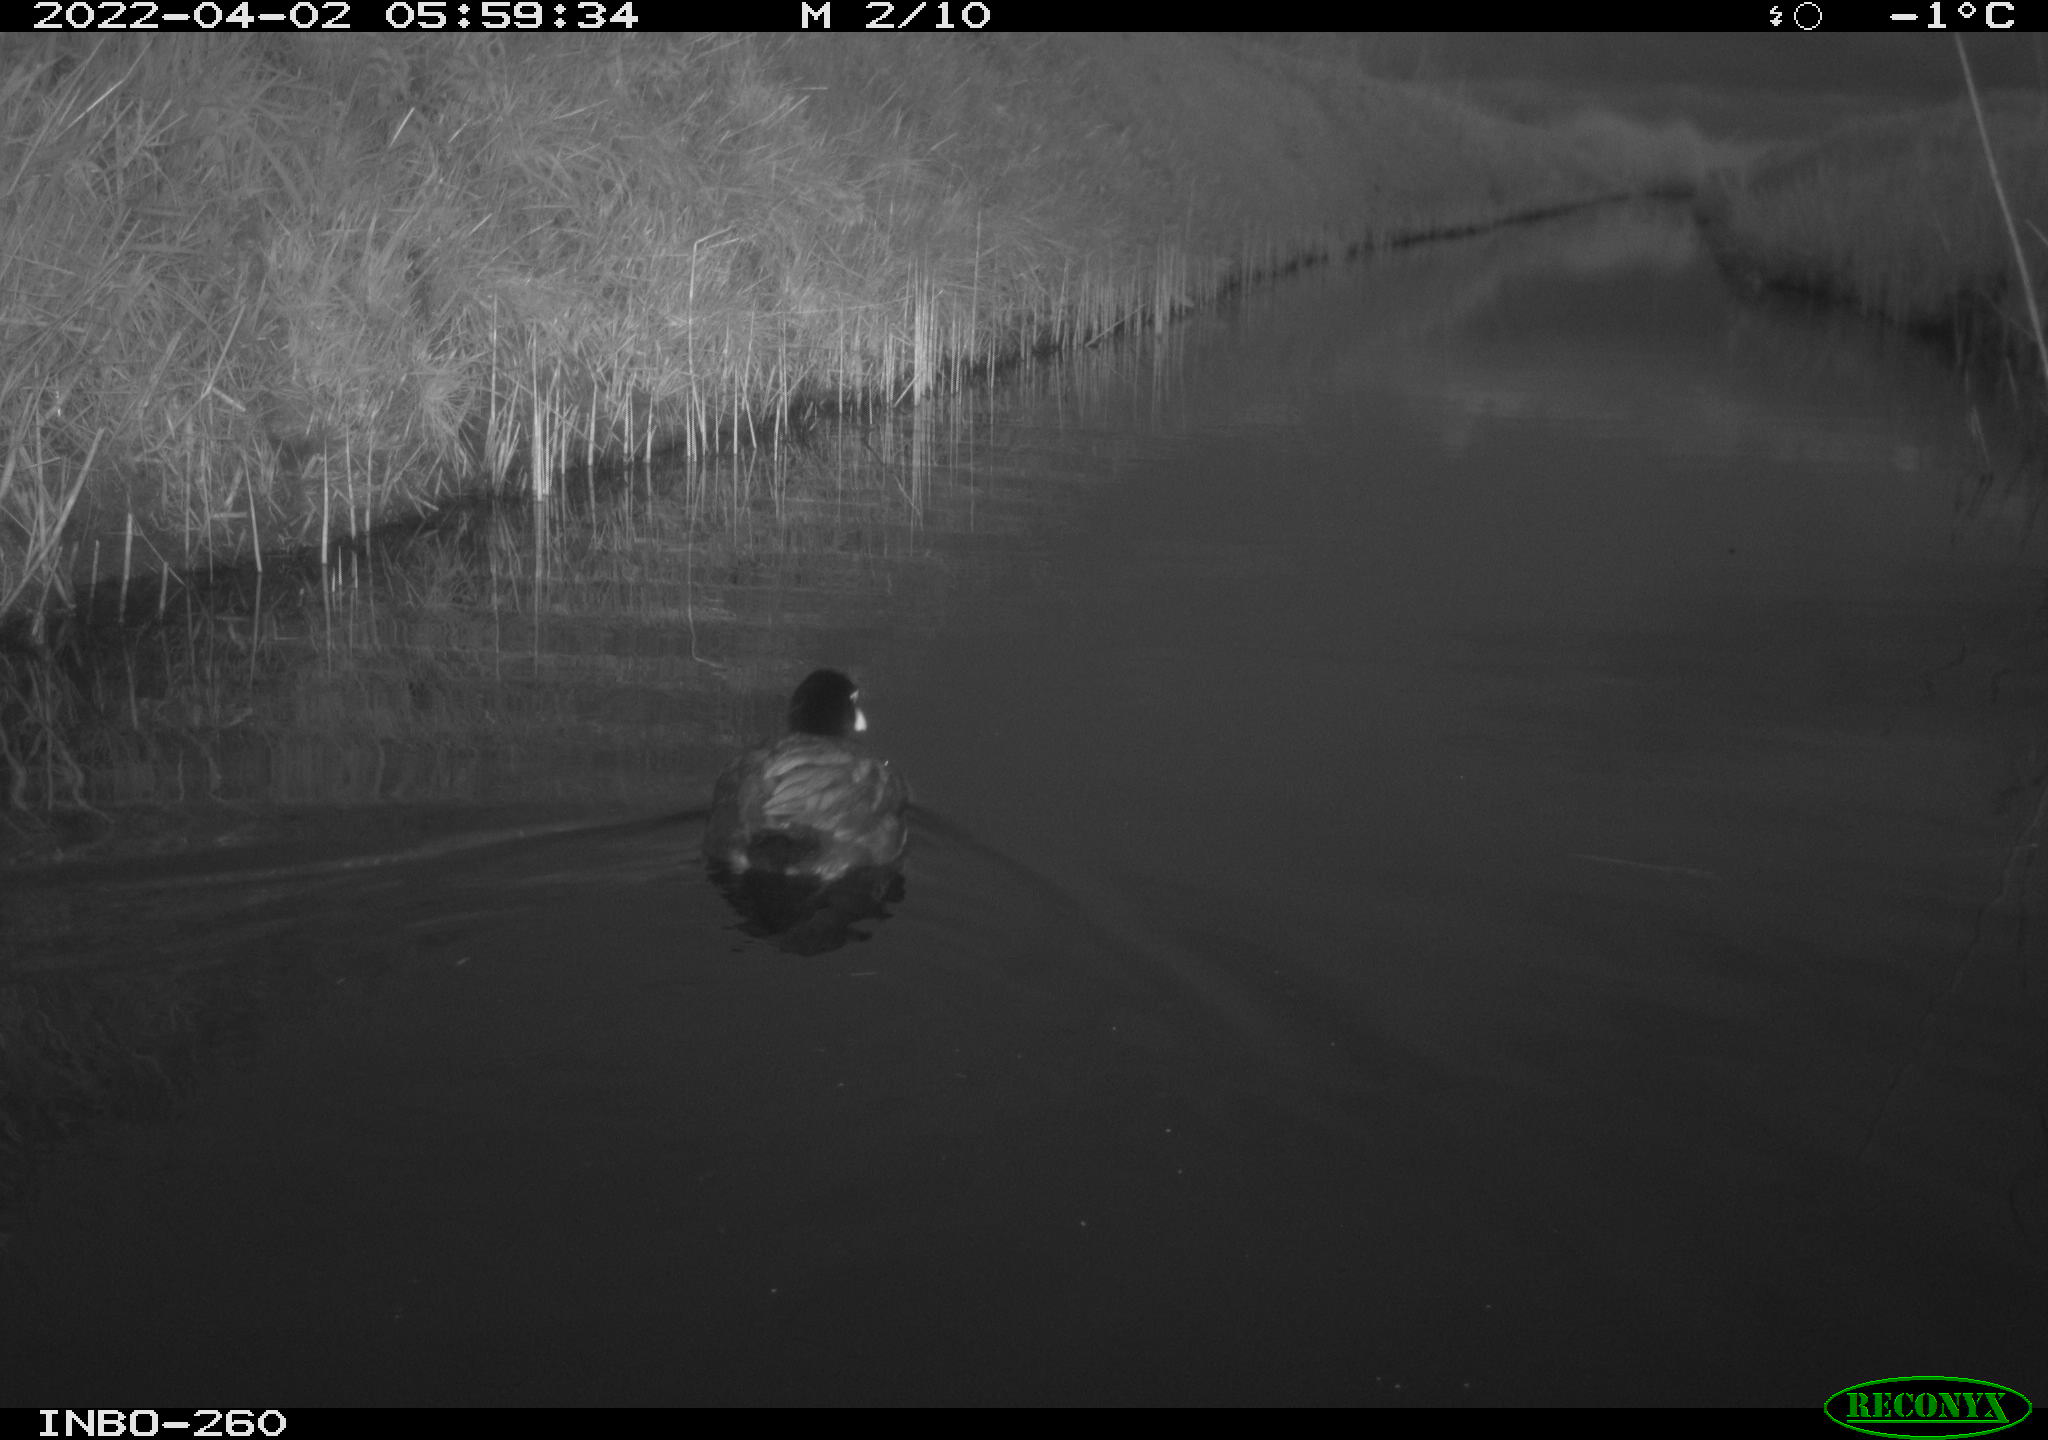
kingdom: Animalia
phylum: Chordata
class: Aves
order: Gruiformes
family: Rallidae
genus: Fulica
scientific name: Fulica atra
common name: Eurasian coot
